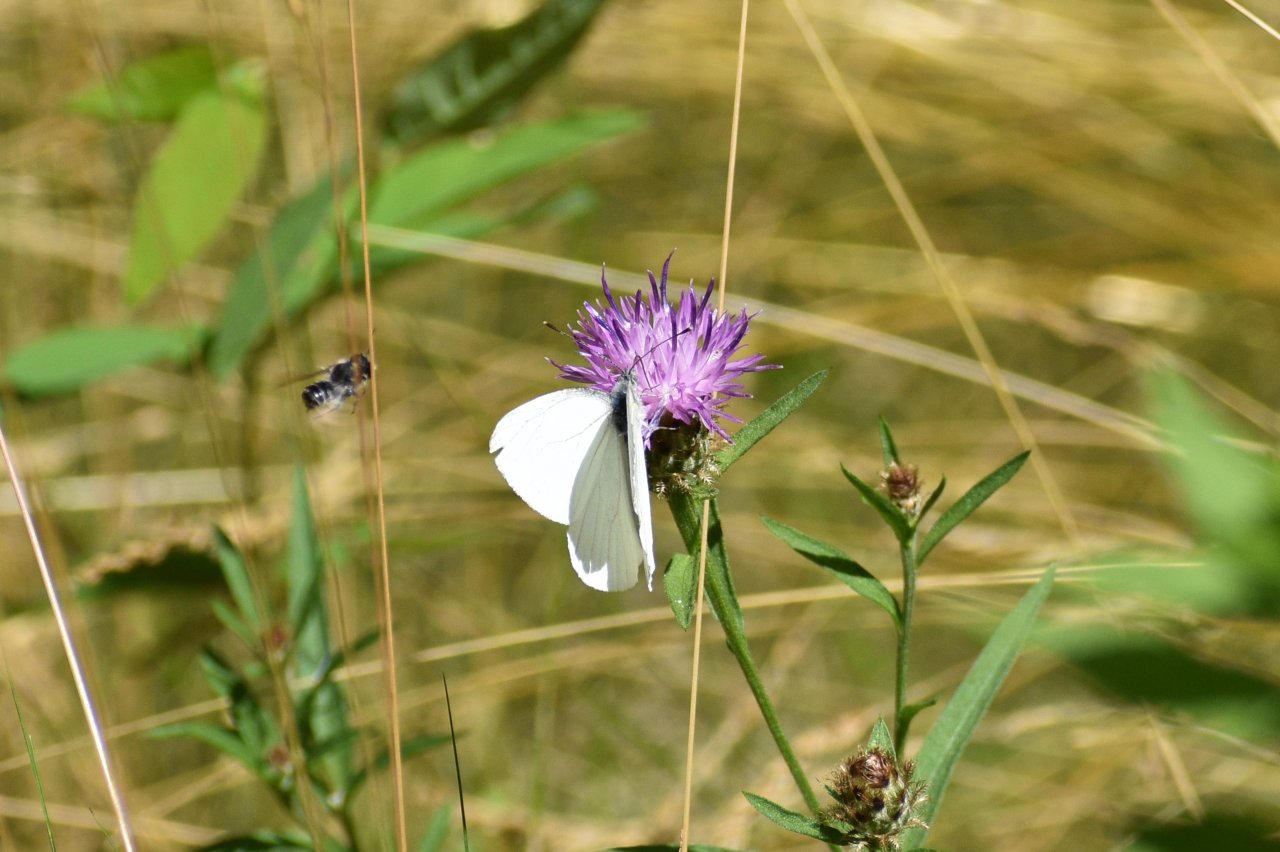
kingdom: Animalia
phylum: Arthropoda
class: Insecta
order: Lepidoptera
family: Pieridae
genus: Pieris
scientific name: Pieris oleracea
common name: Mustard White
